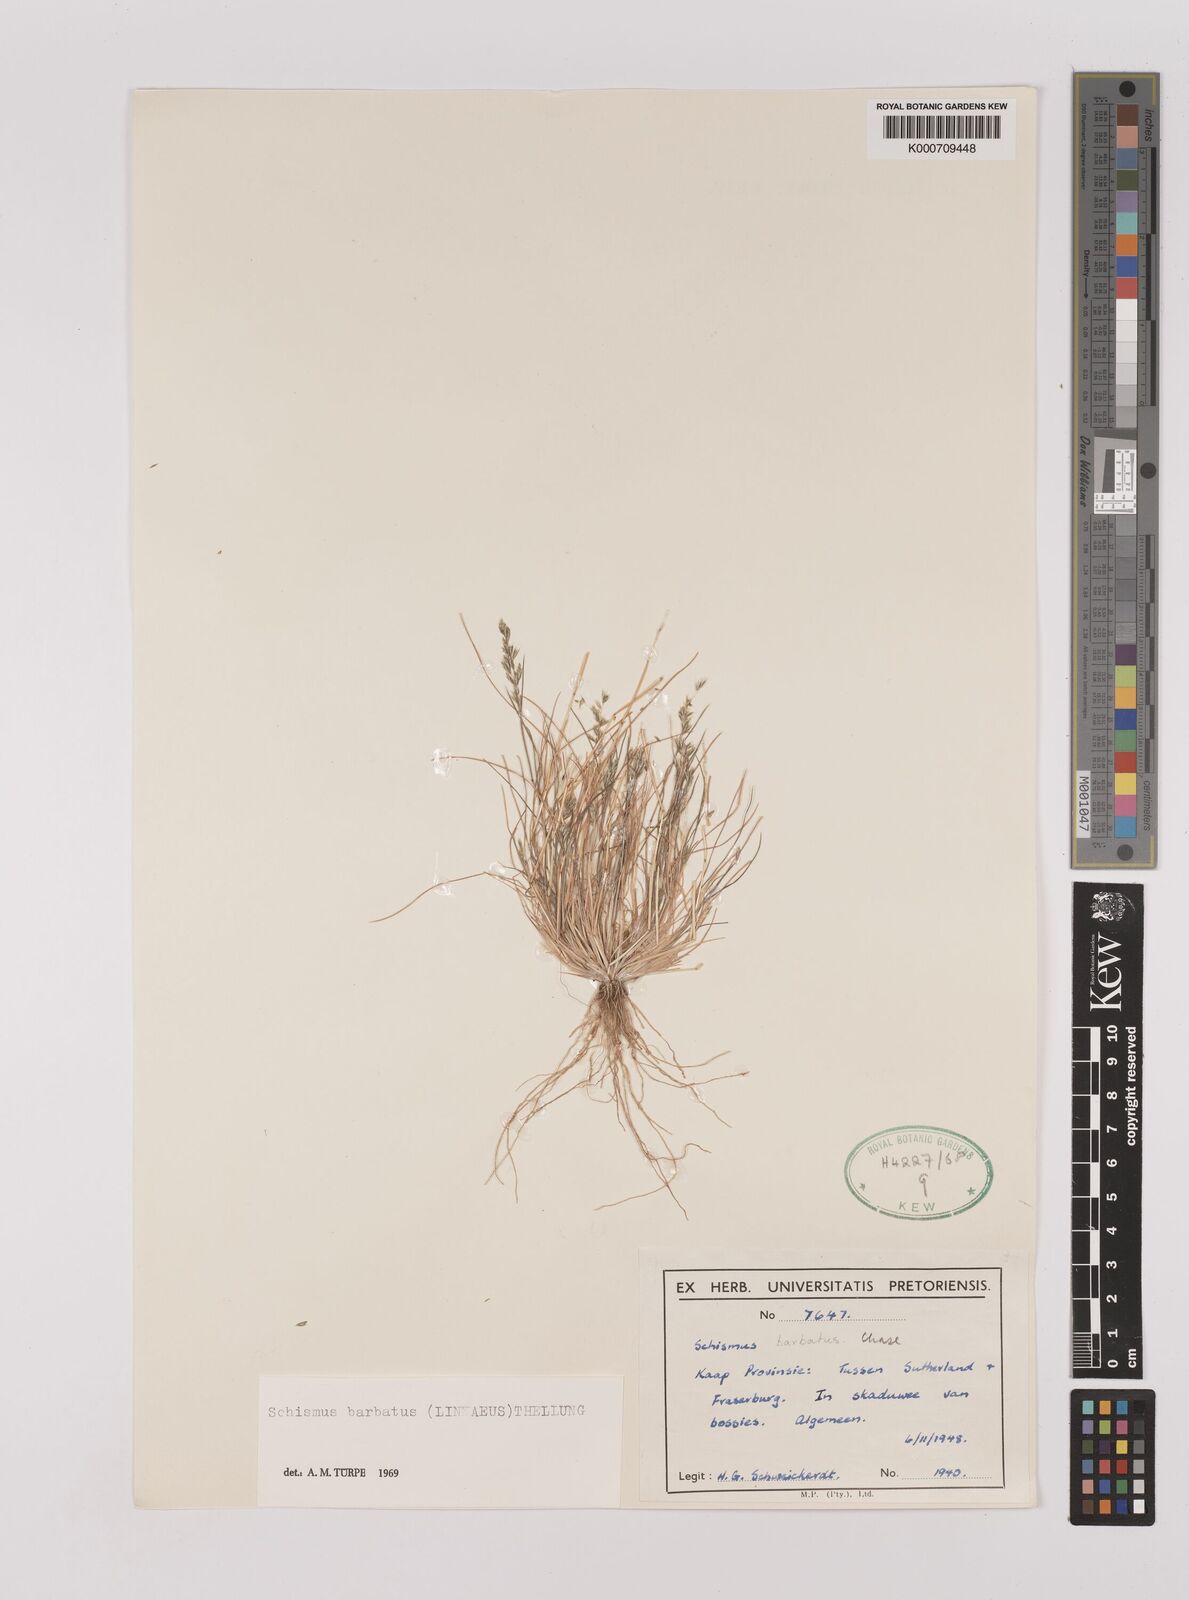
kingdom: Plantae
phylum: Tracheophyta
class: Liliopsida
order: Poales
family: Poaceae
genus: Schismus
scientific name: Schismus barbatus
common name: Kelch-grass
